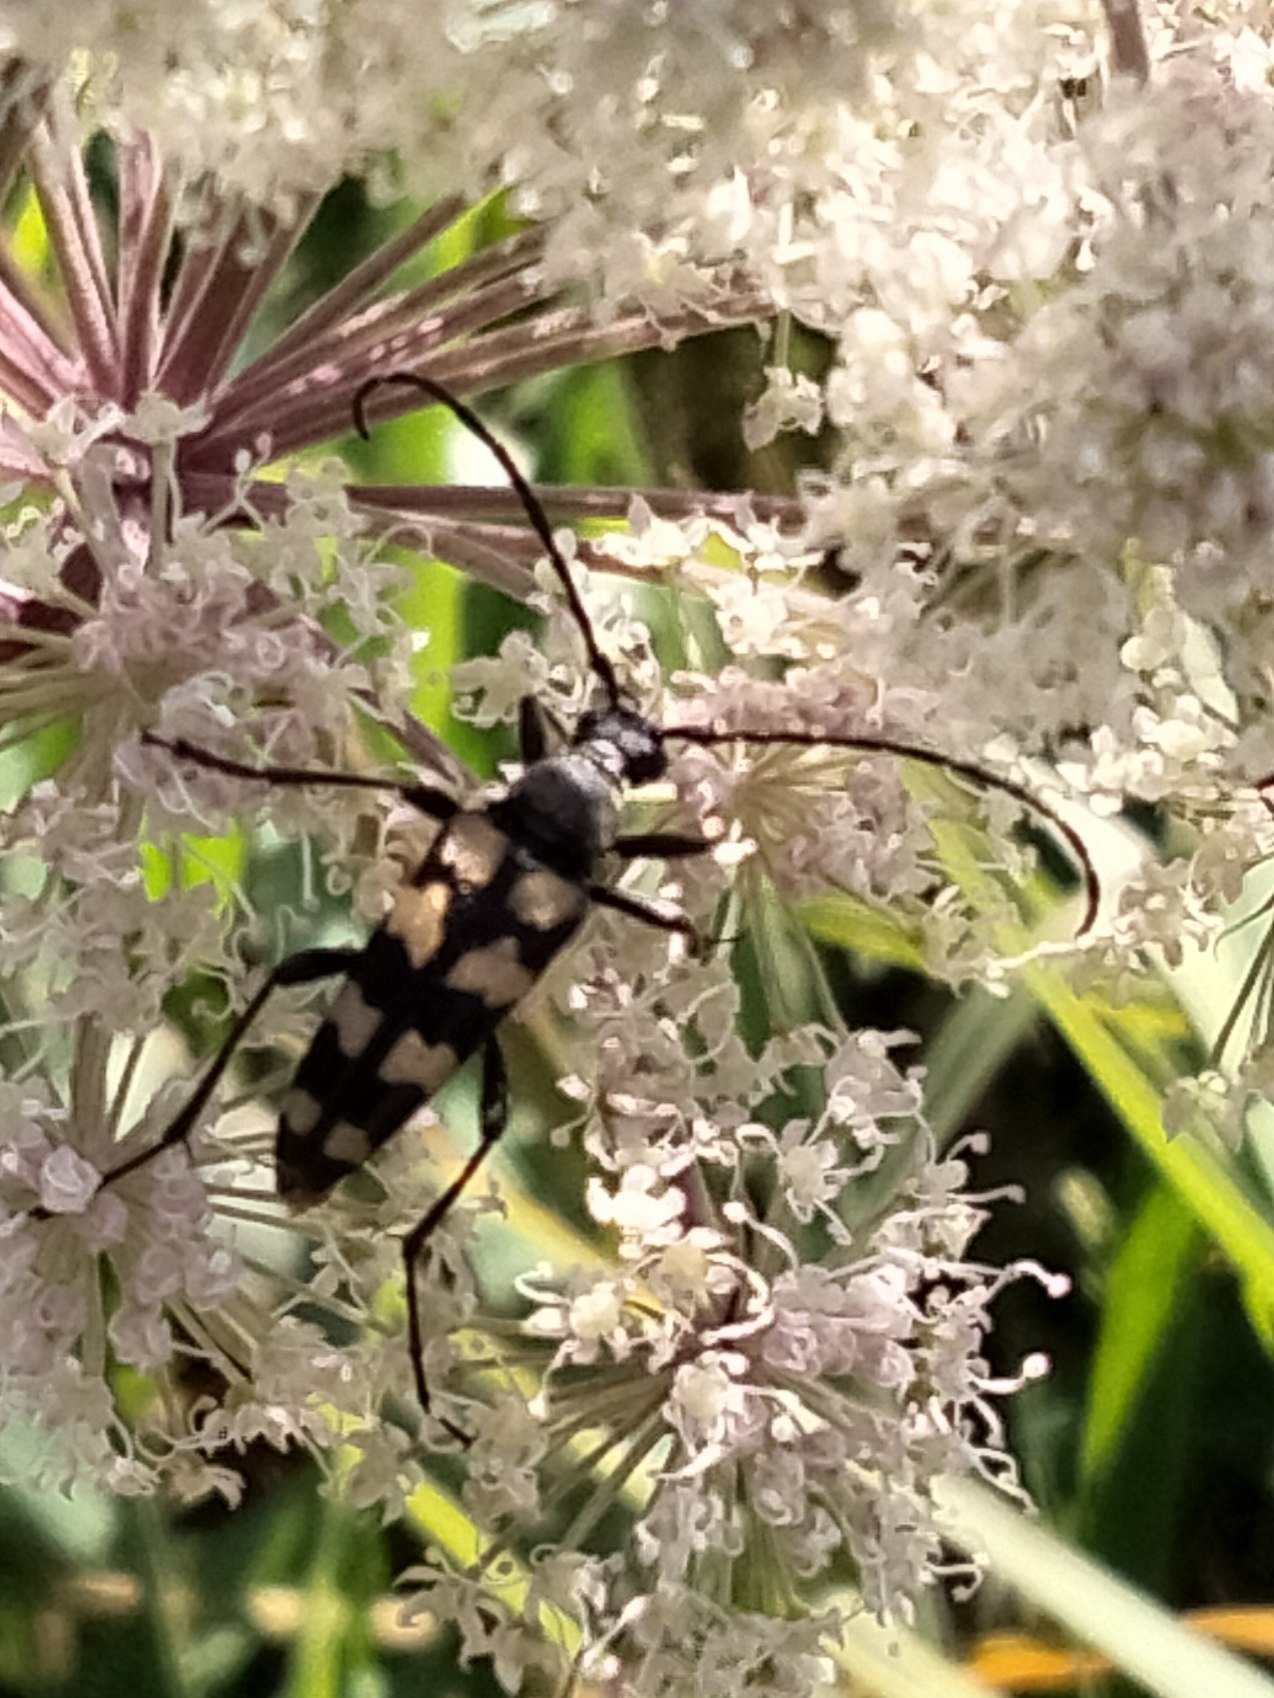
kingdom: Animalia
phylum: Arthropoda
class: Insecta
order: Coleoptera
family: Cerambycidae
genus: Leptura
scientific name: Leptura quadrifasciata
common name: Firebåndet blomsterbuk
